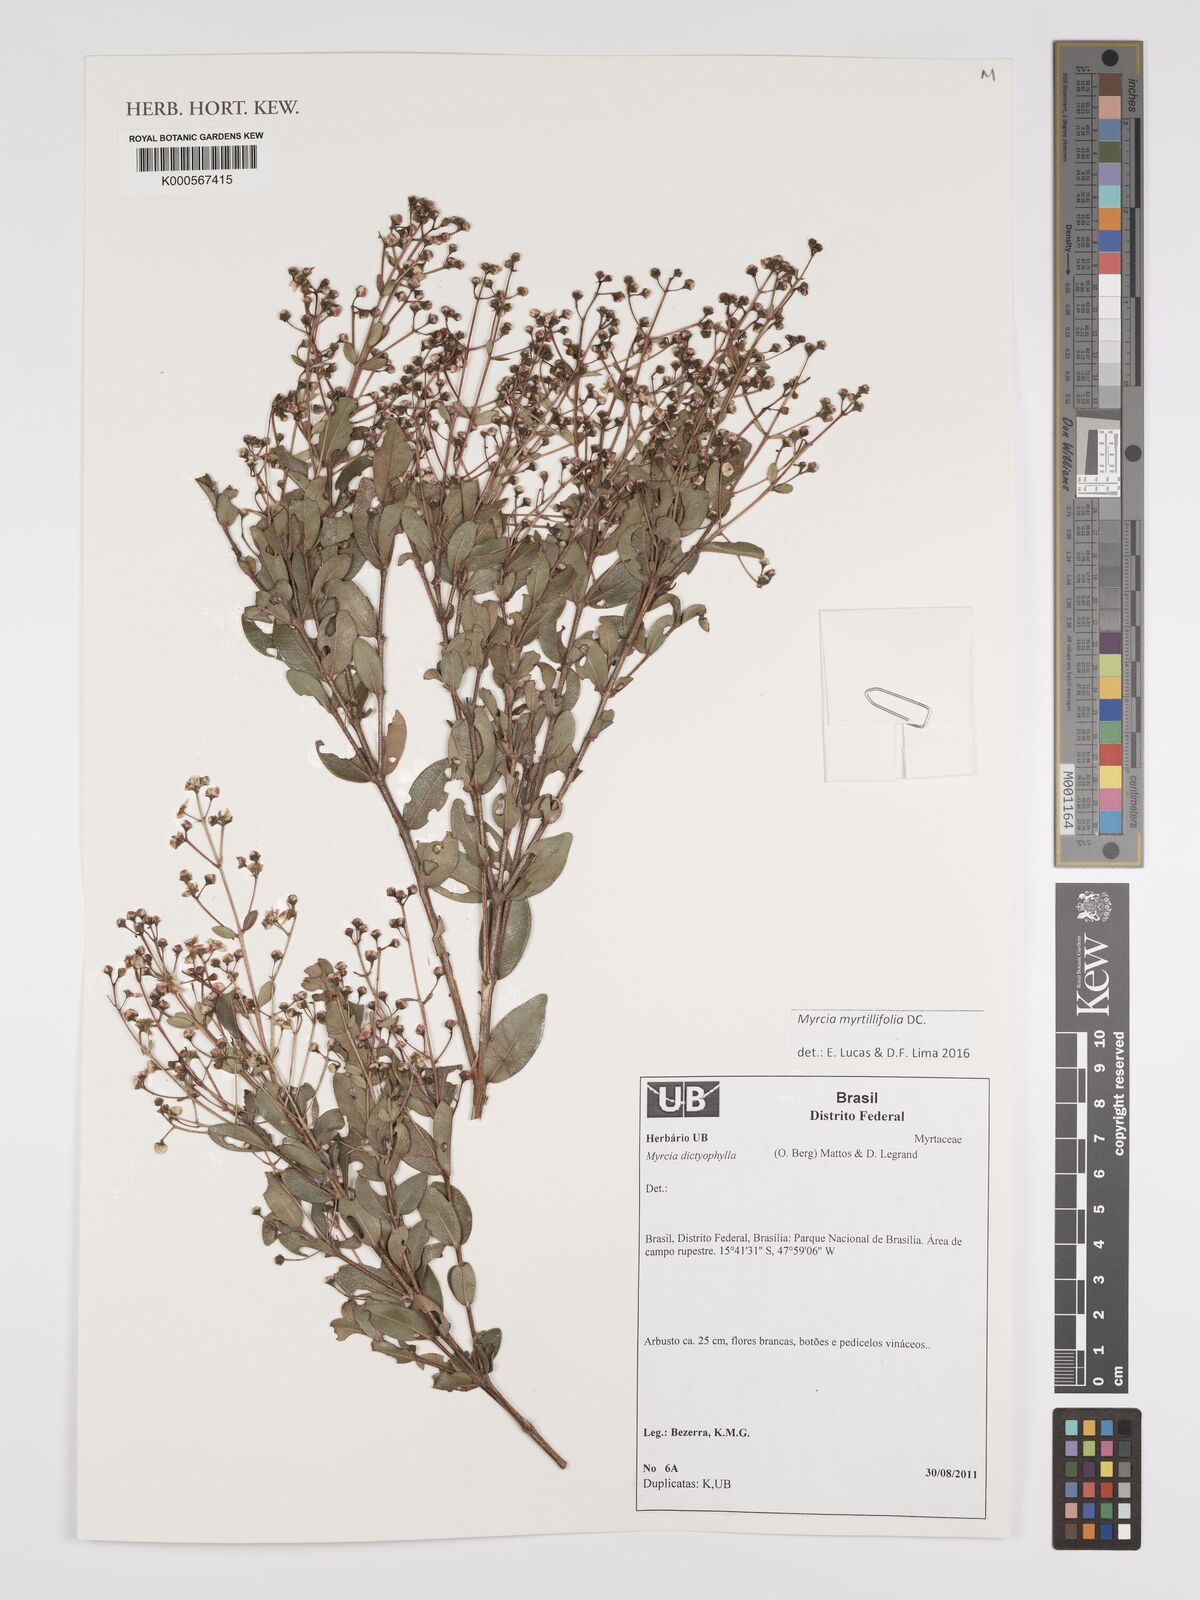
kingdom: Plantae
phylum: Tracheophyta
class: Magnoliopsida
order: Myrtales
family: Myrtaceae
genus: Myrcia
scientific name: Myrcia guianensis
